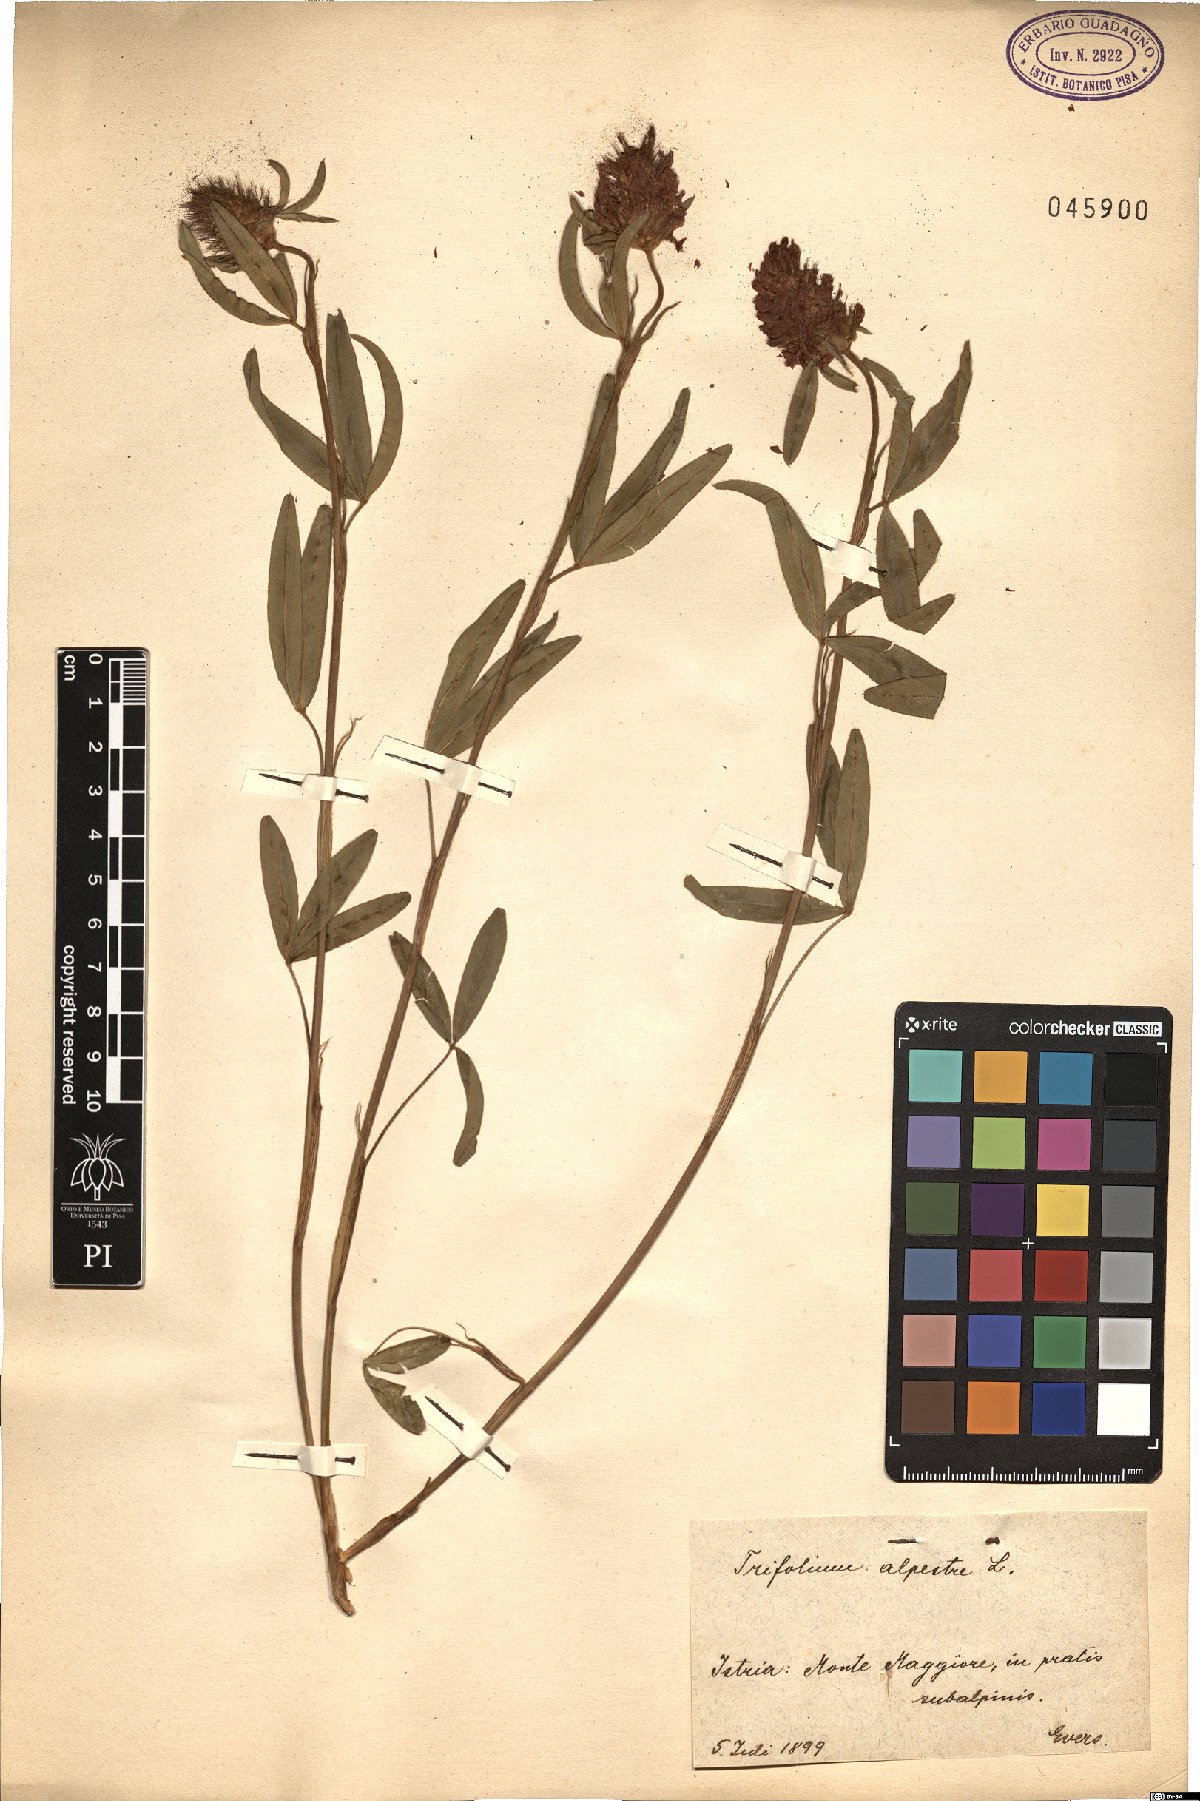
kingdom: Plantae
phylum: Tracheophyta
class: Magnoliopsida
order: Fabales
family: Fabaceae
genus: Trifolium
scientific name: Trifolium alpestre
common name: Owl-head clover
